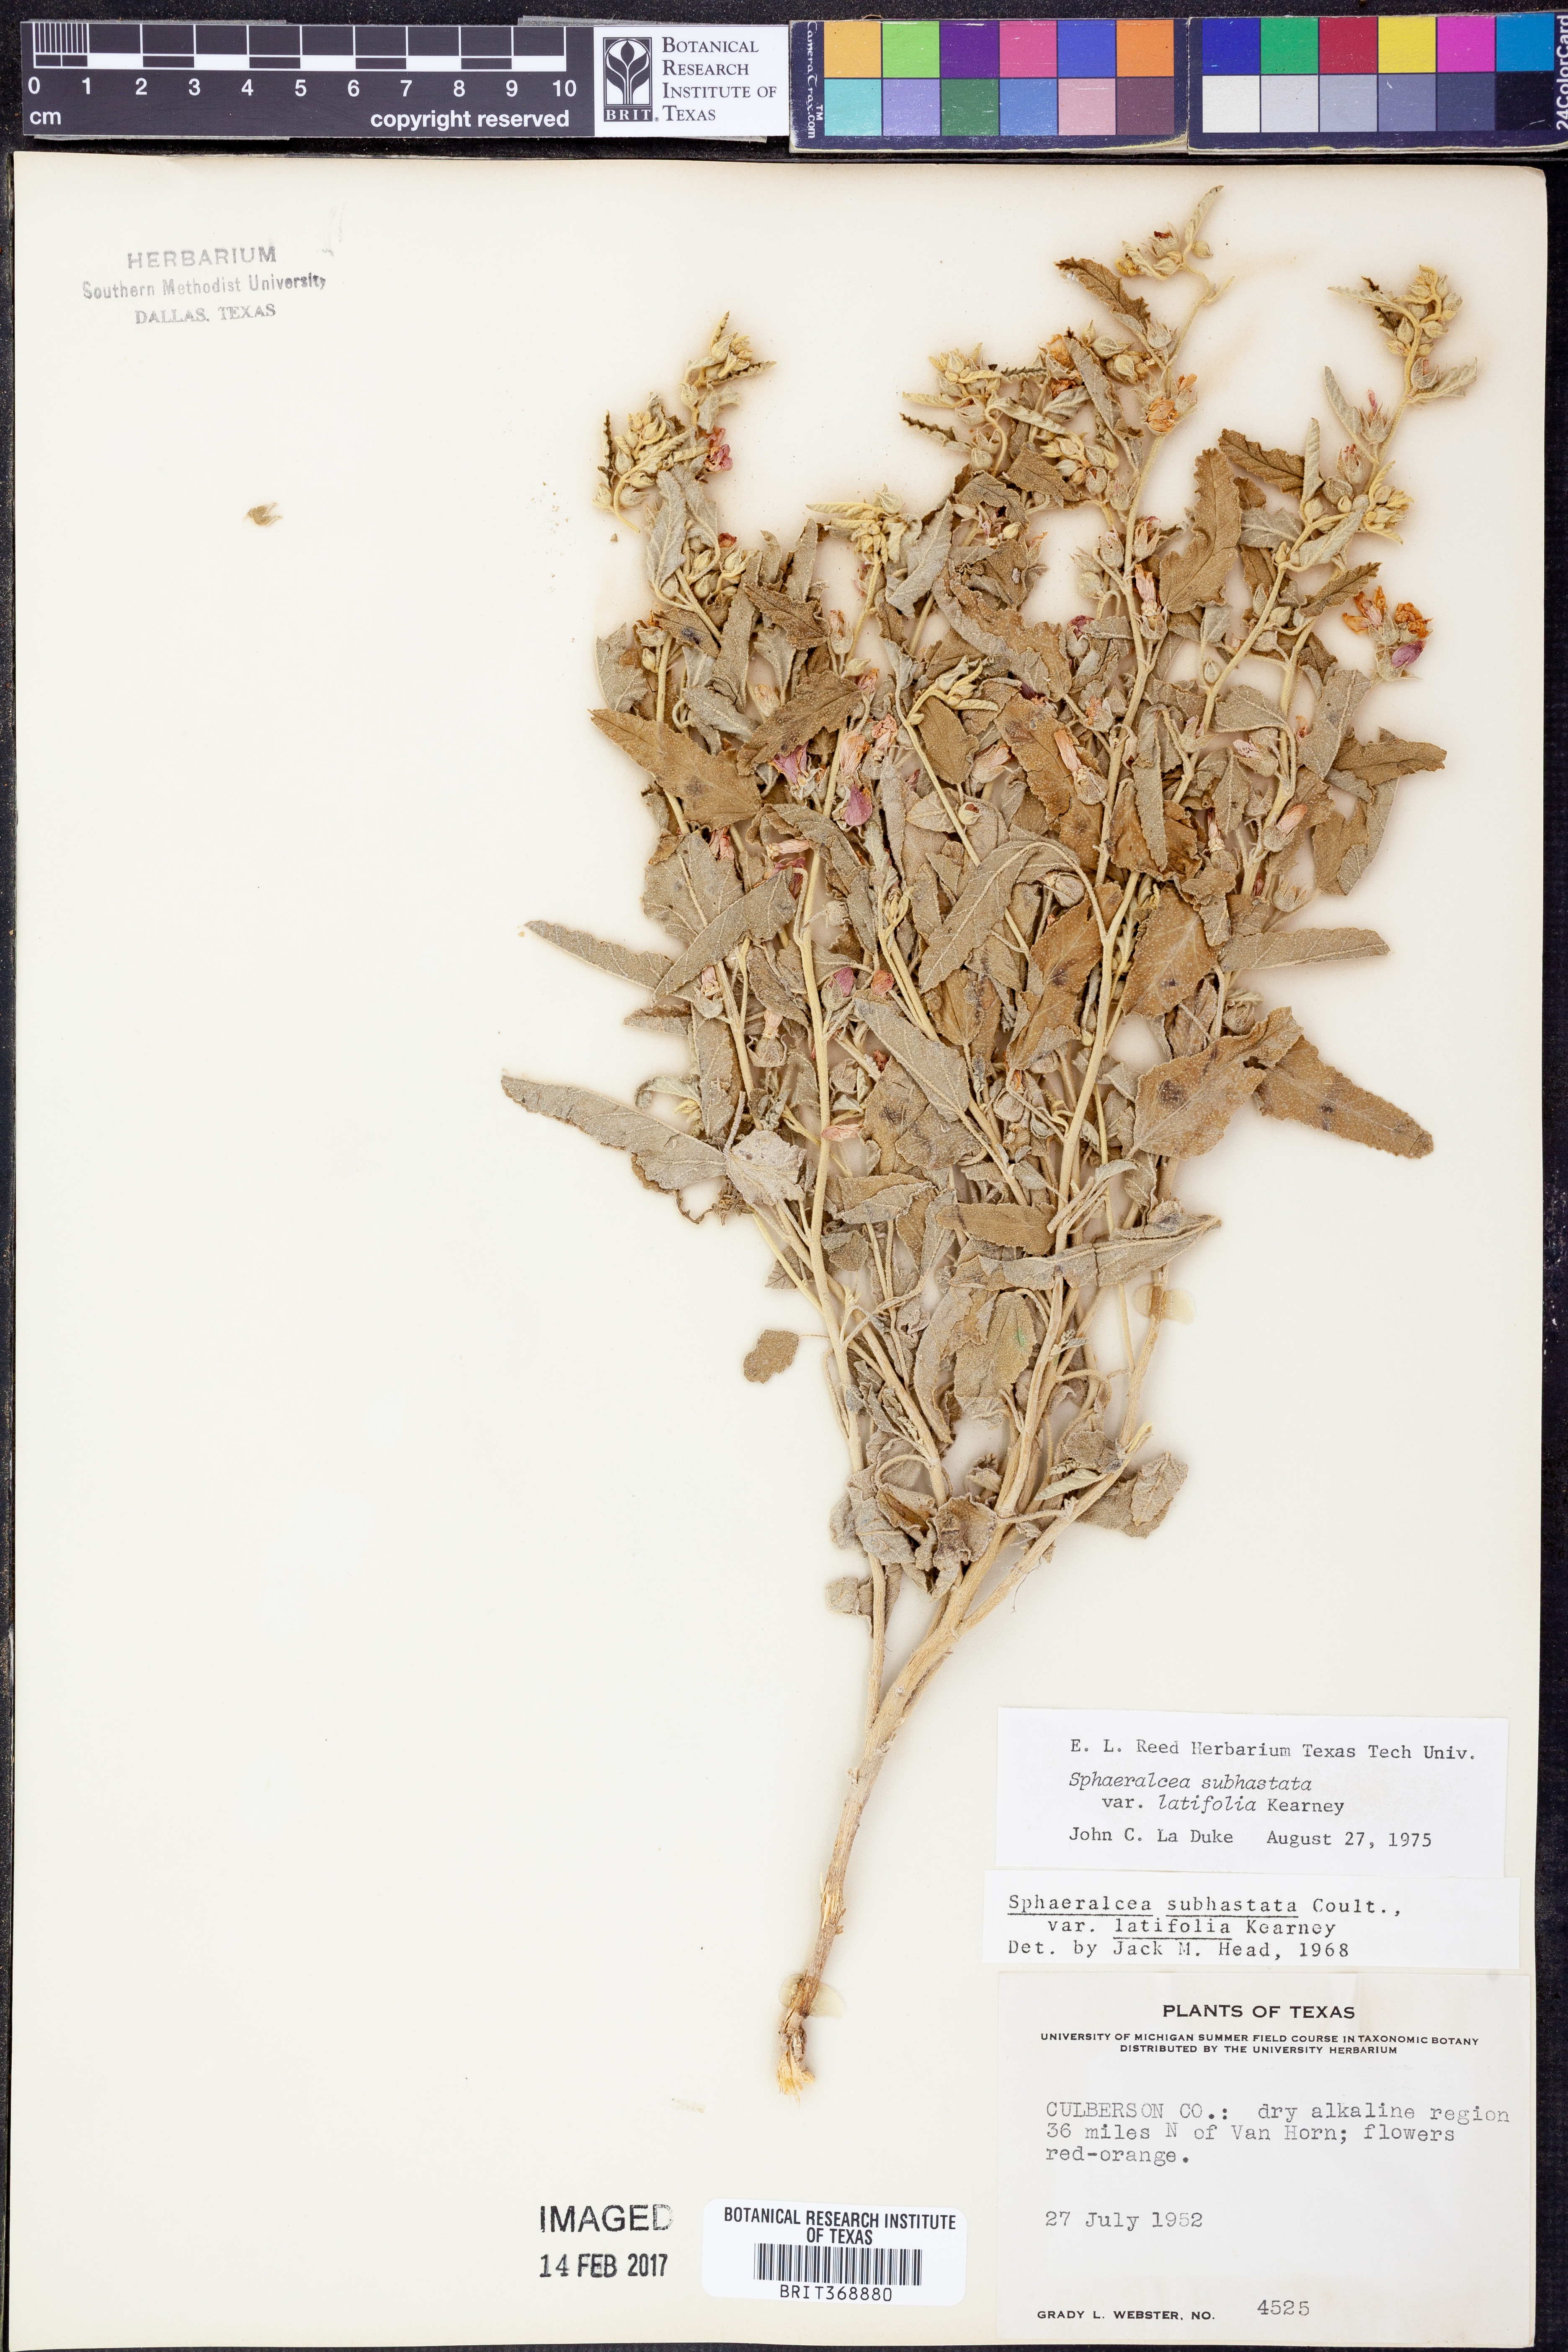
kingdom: Plantae
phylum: Tracheophyta
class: Magnoliopsida
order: Malvales
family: Malvaceae
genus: Sphaeralcea
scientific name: Sphaeralcea hastulata
